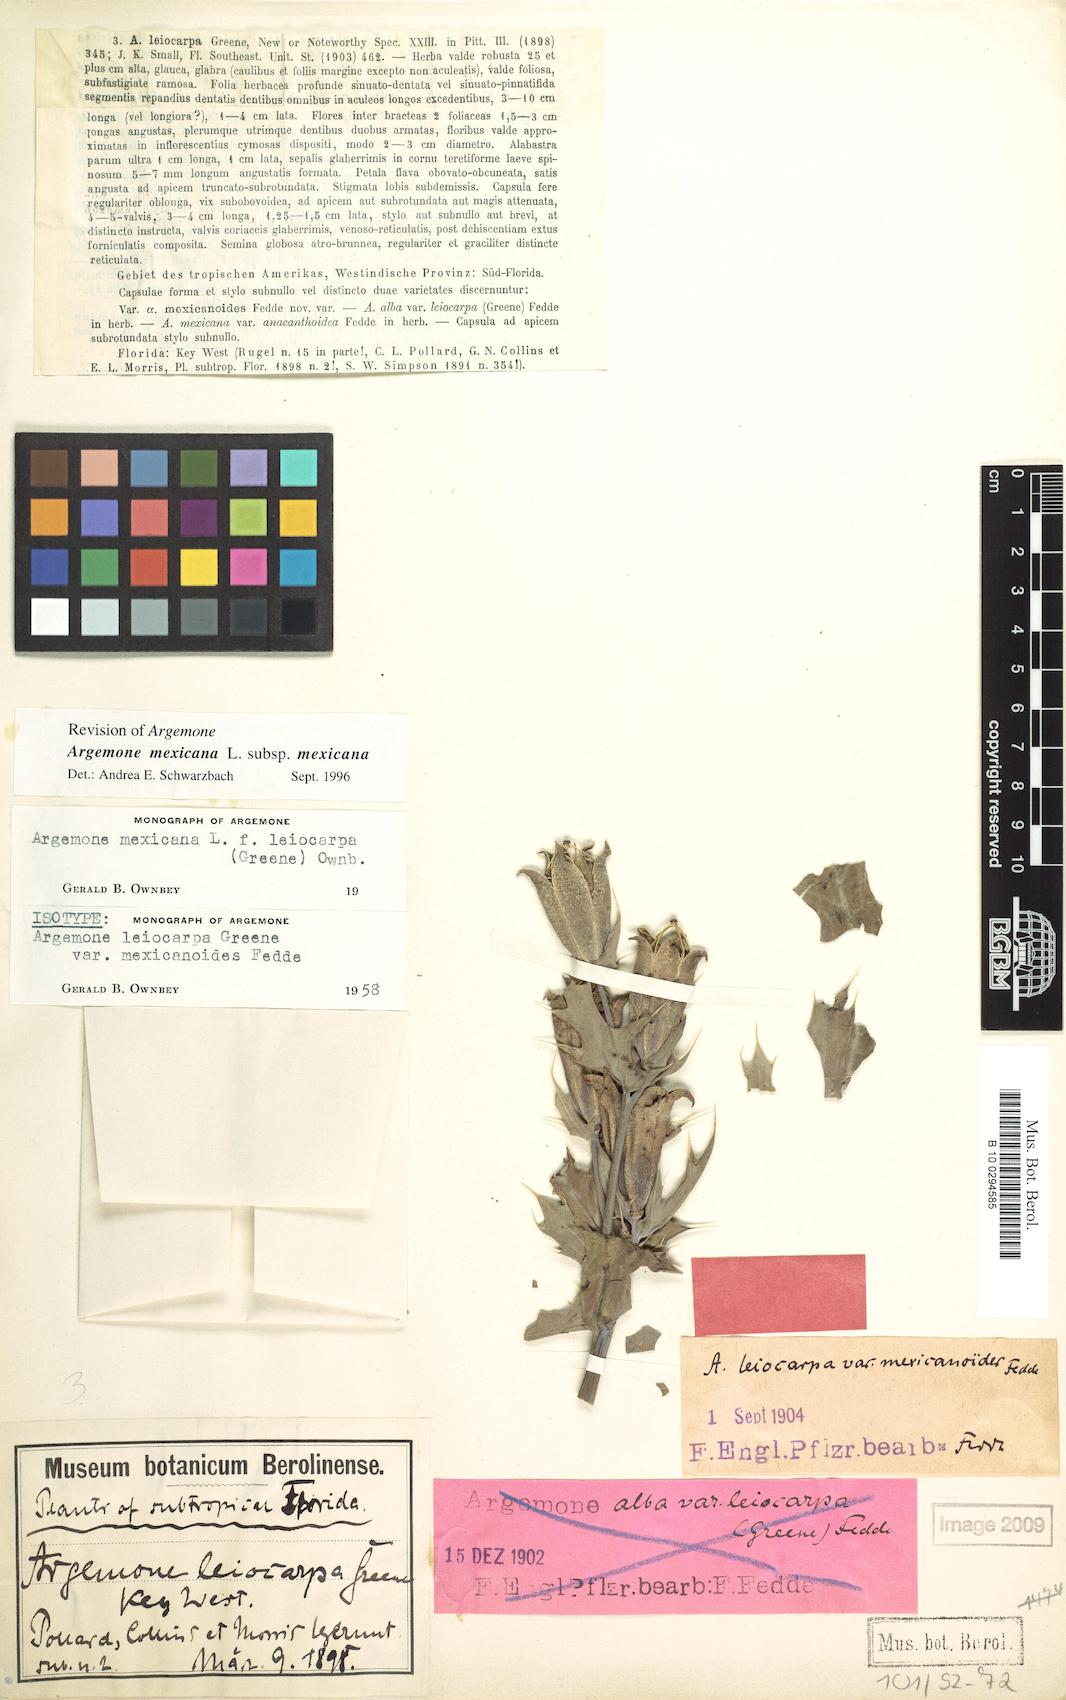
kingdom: Plantae
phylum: Tracheophyta
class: Magnoliopsida
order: Ranunculales
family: Papaveraceae
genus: Argemone
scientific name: Argemone mexicana
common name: Mexican poppy
